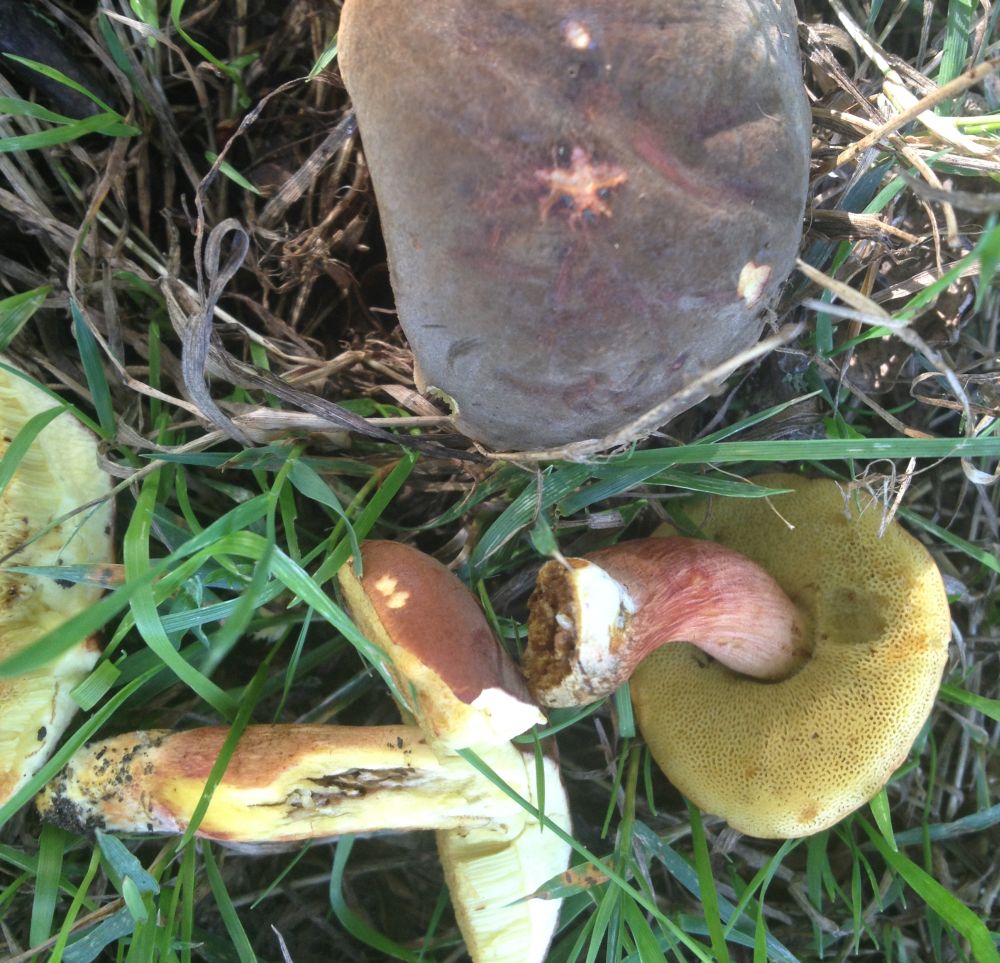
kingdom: Fungi
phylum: Basidiomycota
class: Agaricomycetes
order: Boletales
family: Boletaceae
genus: Xerocomellus
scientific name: Xerocomellus chrysenteron
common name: rødsprukken rørhat
